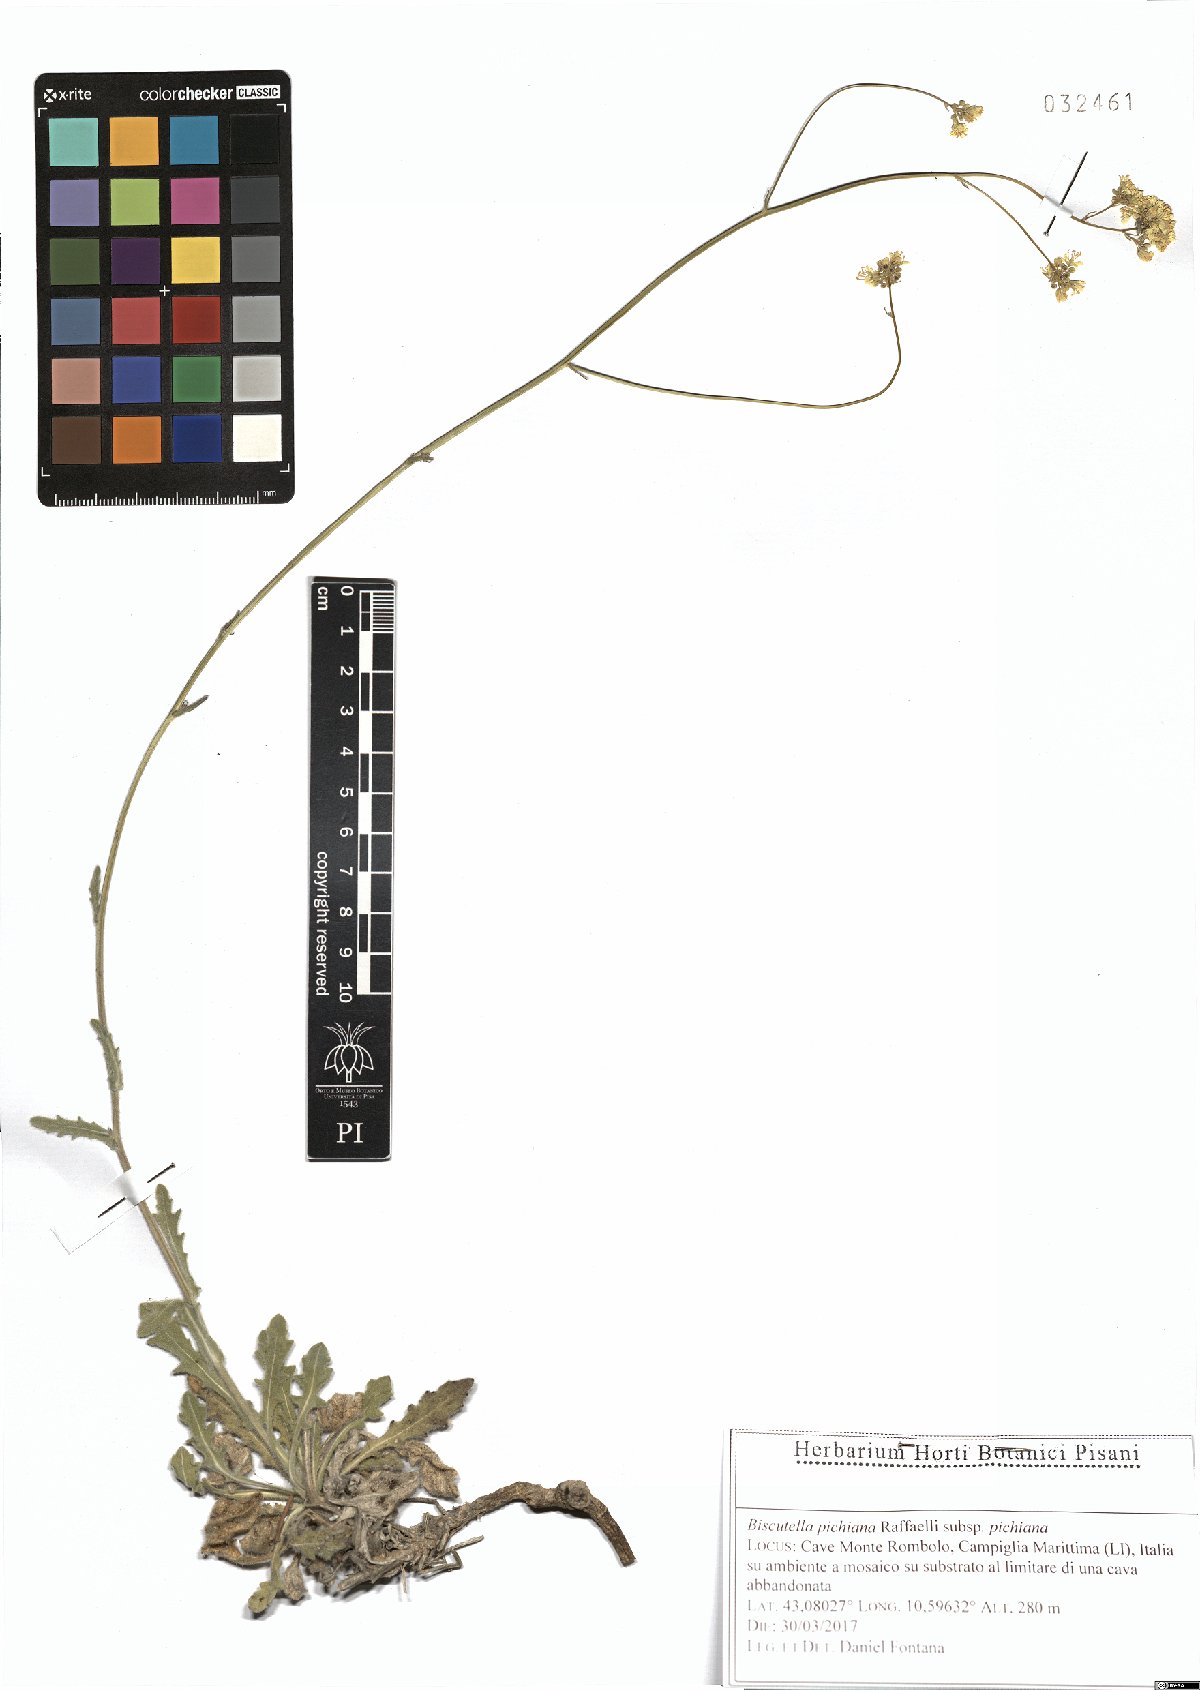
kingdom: Plantae
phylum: Tracheophyta
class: Magnoliopsida
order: Brassicales
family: Brassicaceae
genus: Biscutella
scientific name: Biscutella pichiana
